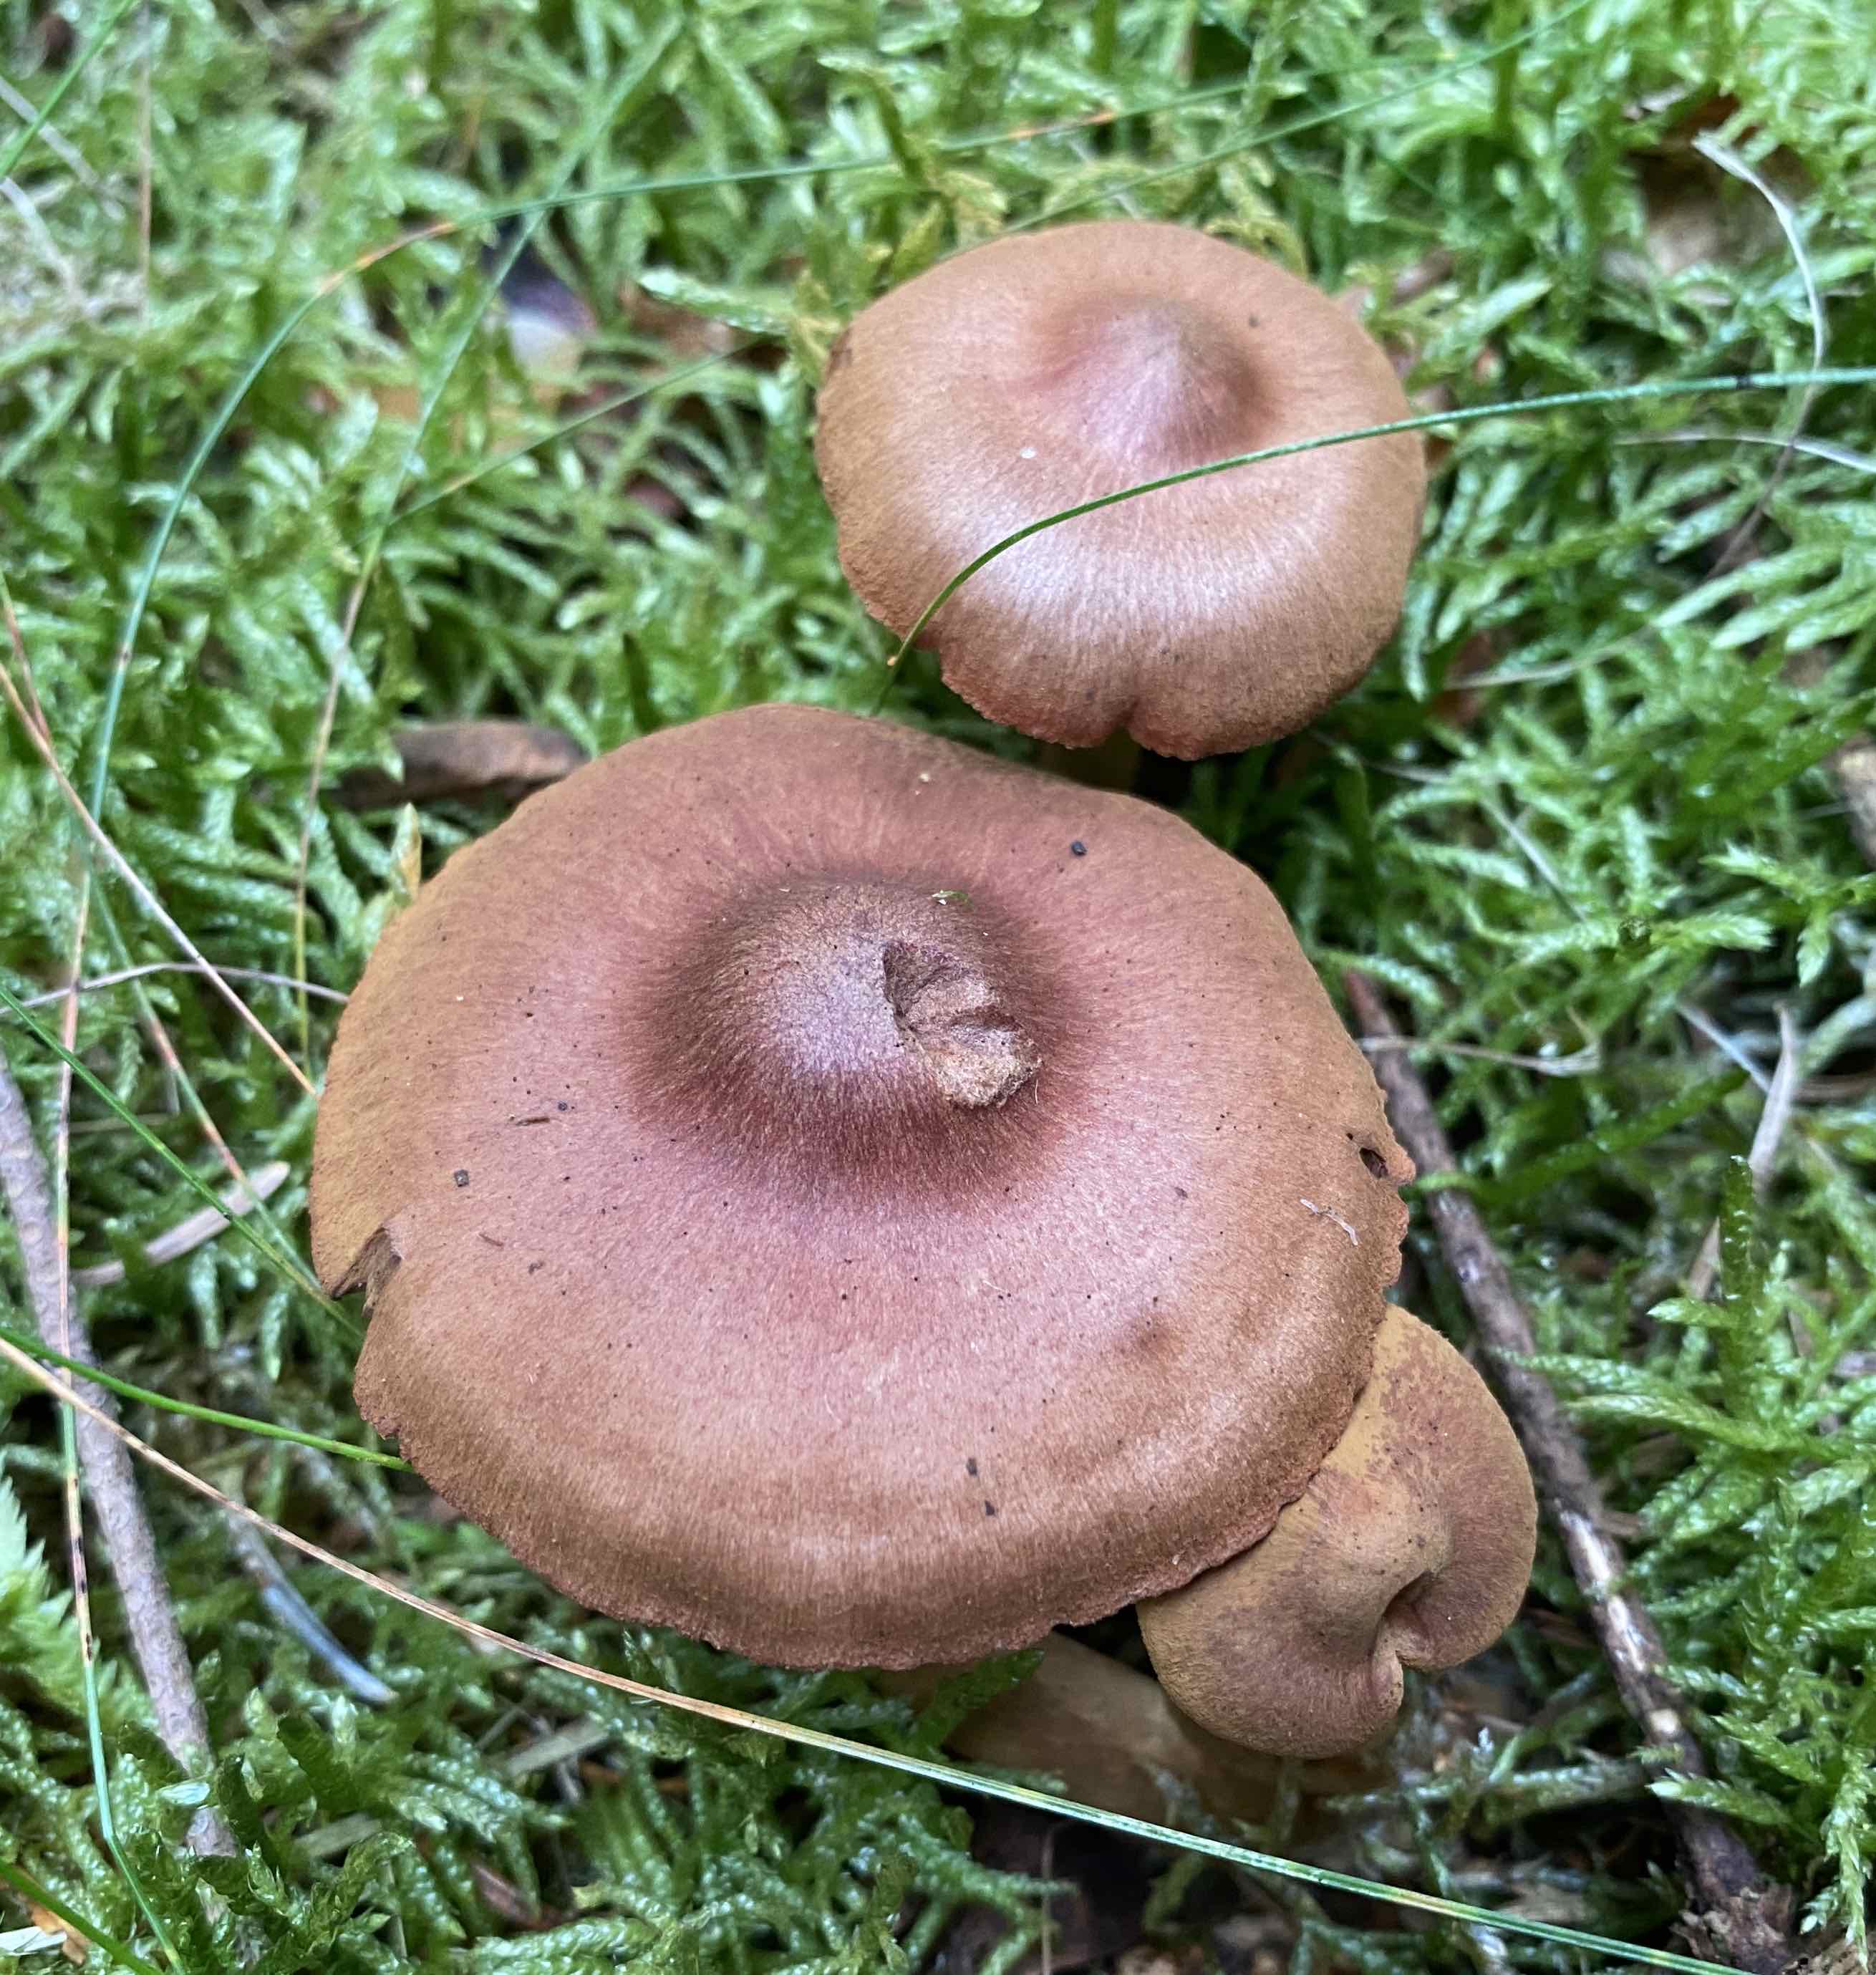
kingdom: Fungi
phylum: Basidiomycota
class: Agaricomycetes
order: Agaricales
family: Cortinariaceae
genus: Cortinarius
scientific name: Cortinarius
